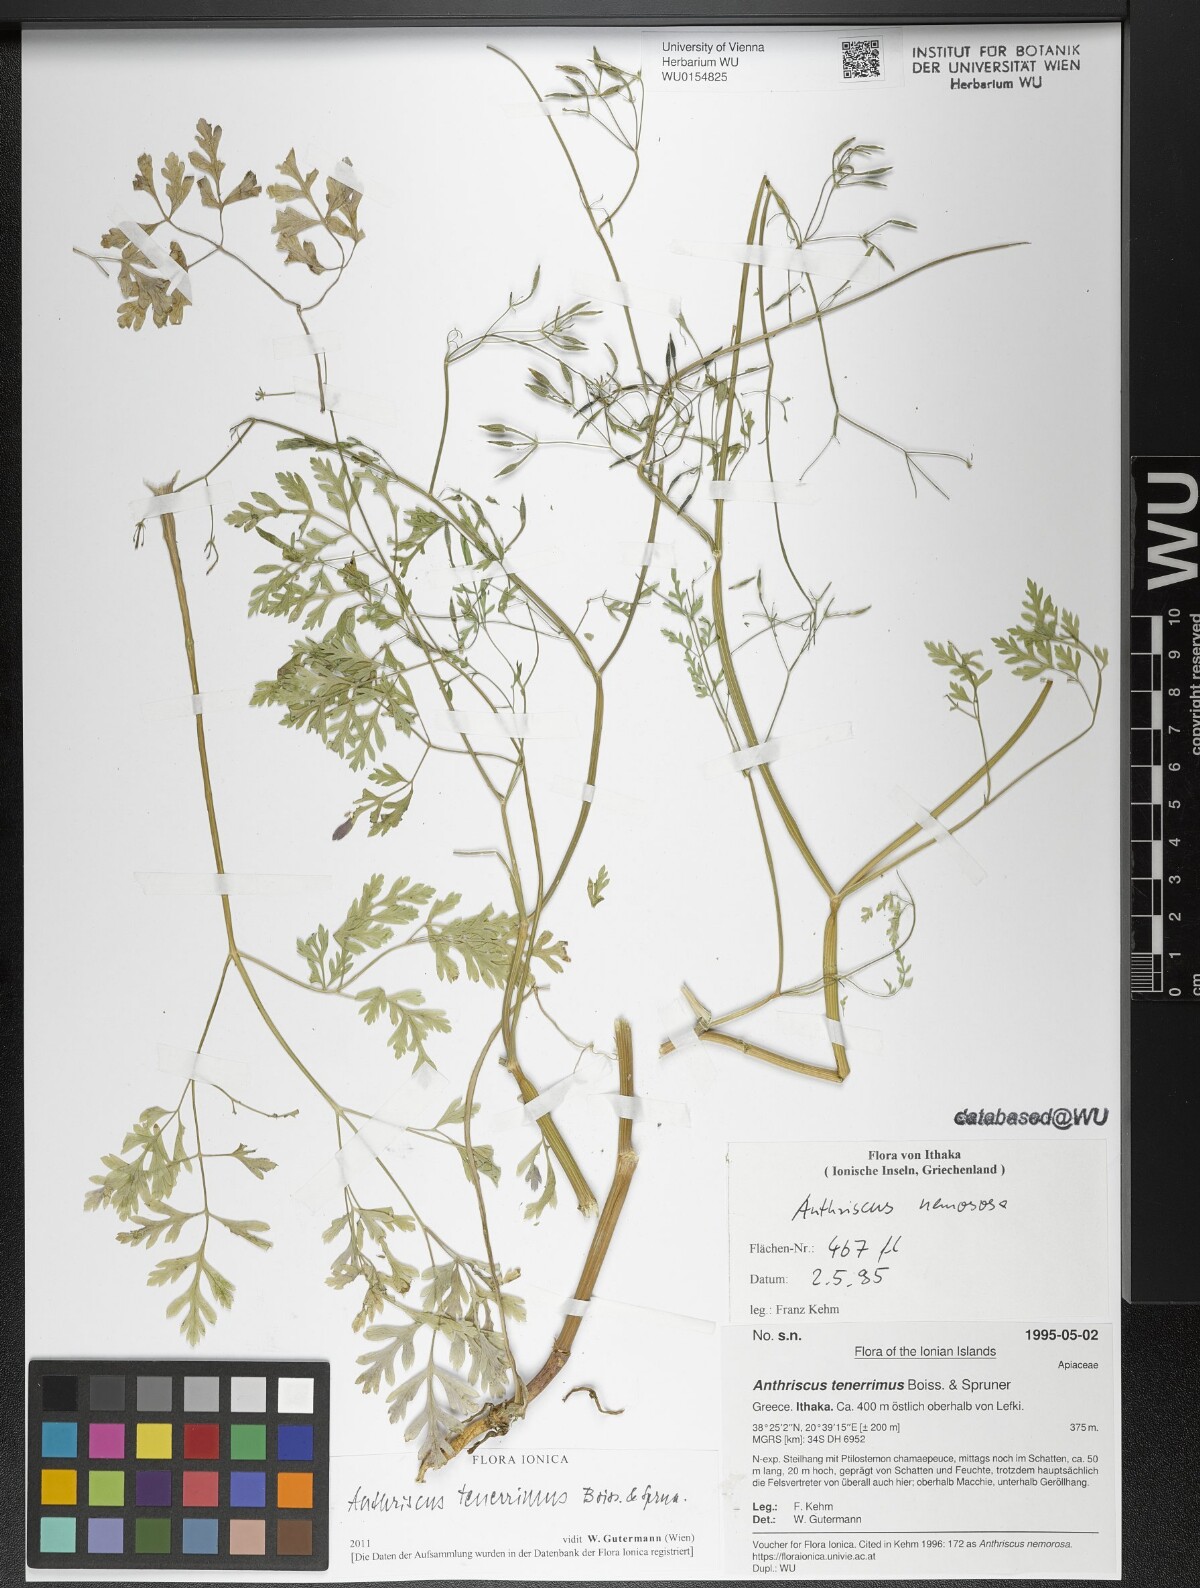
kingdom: Plantae
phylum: Tracheophyta
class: Magnoliopsida
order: Apiales
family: Apiaceae
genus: Anthriscus
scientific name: Anthriscus tenerrima
